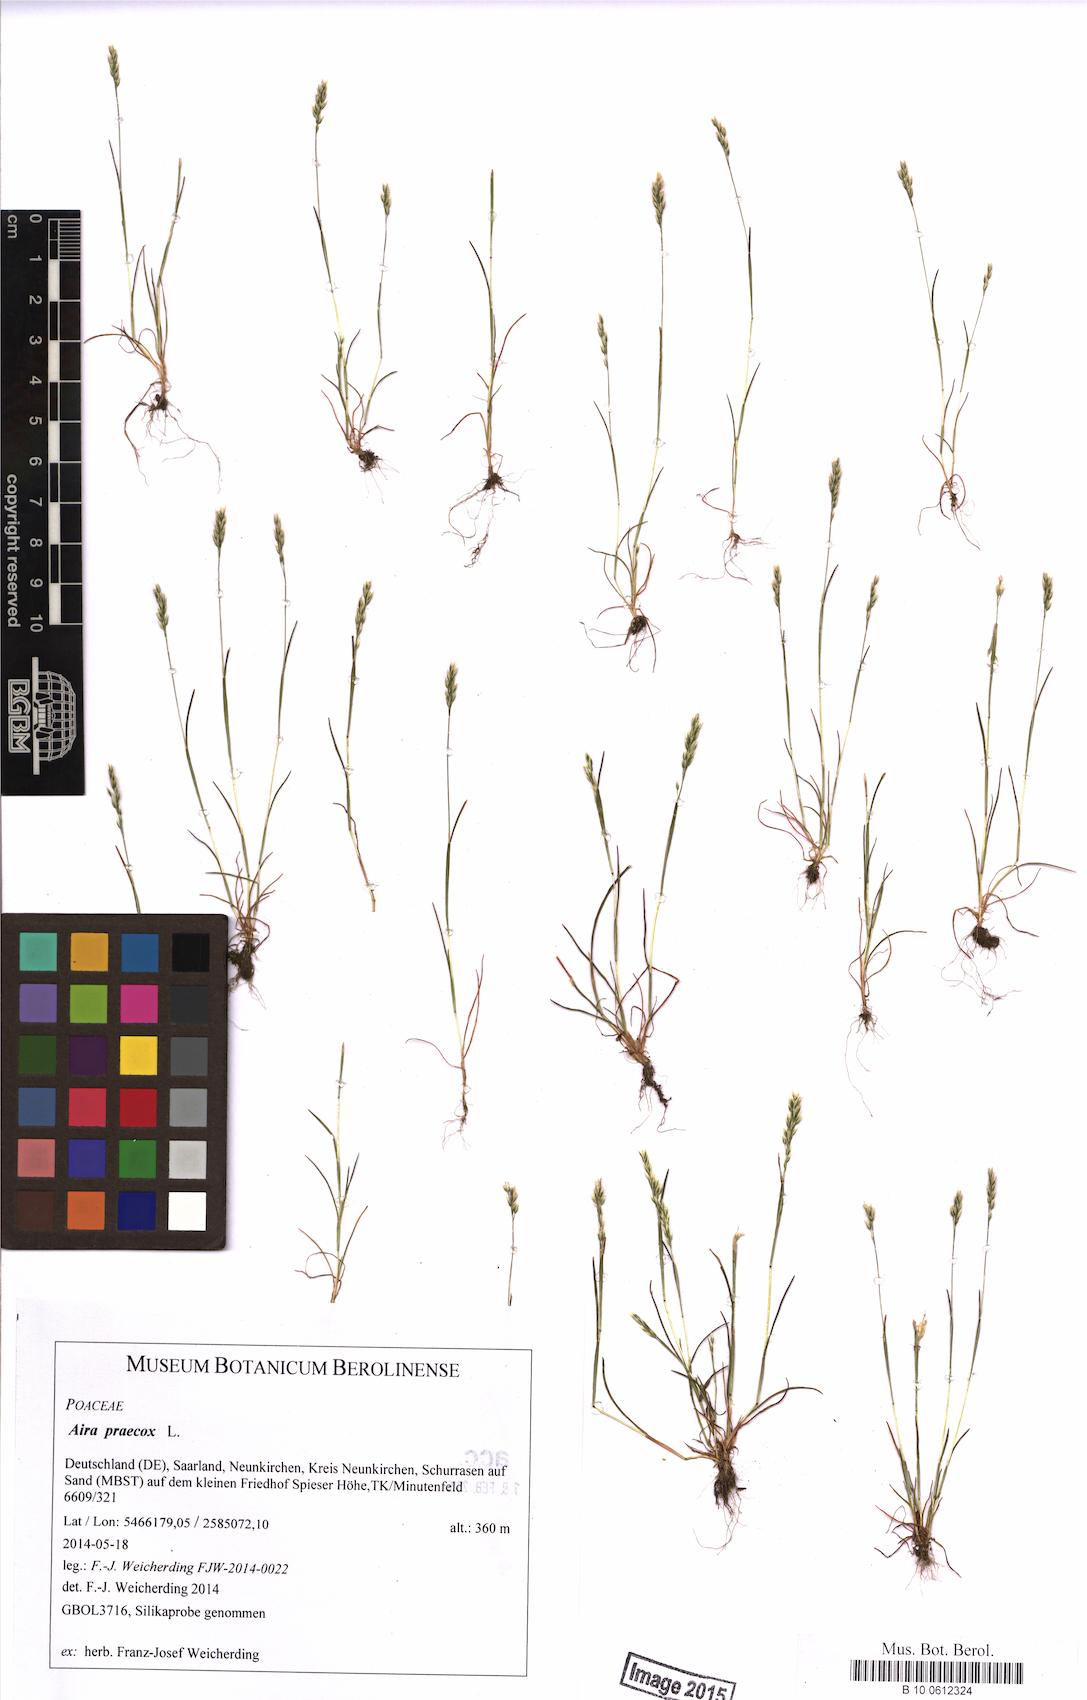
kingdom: Plantae
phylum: Tracheophyta
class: Liliopsida
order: Poales
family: Poaceae
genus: Aira
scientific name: Aira praecox
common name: Early hair-grass
